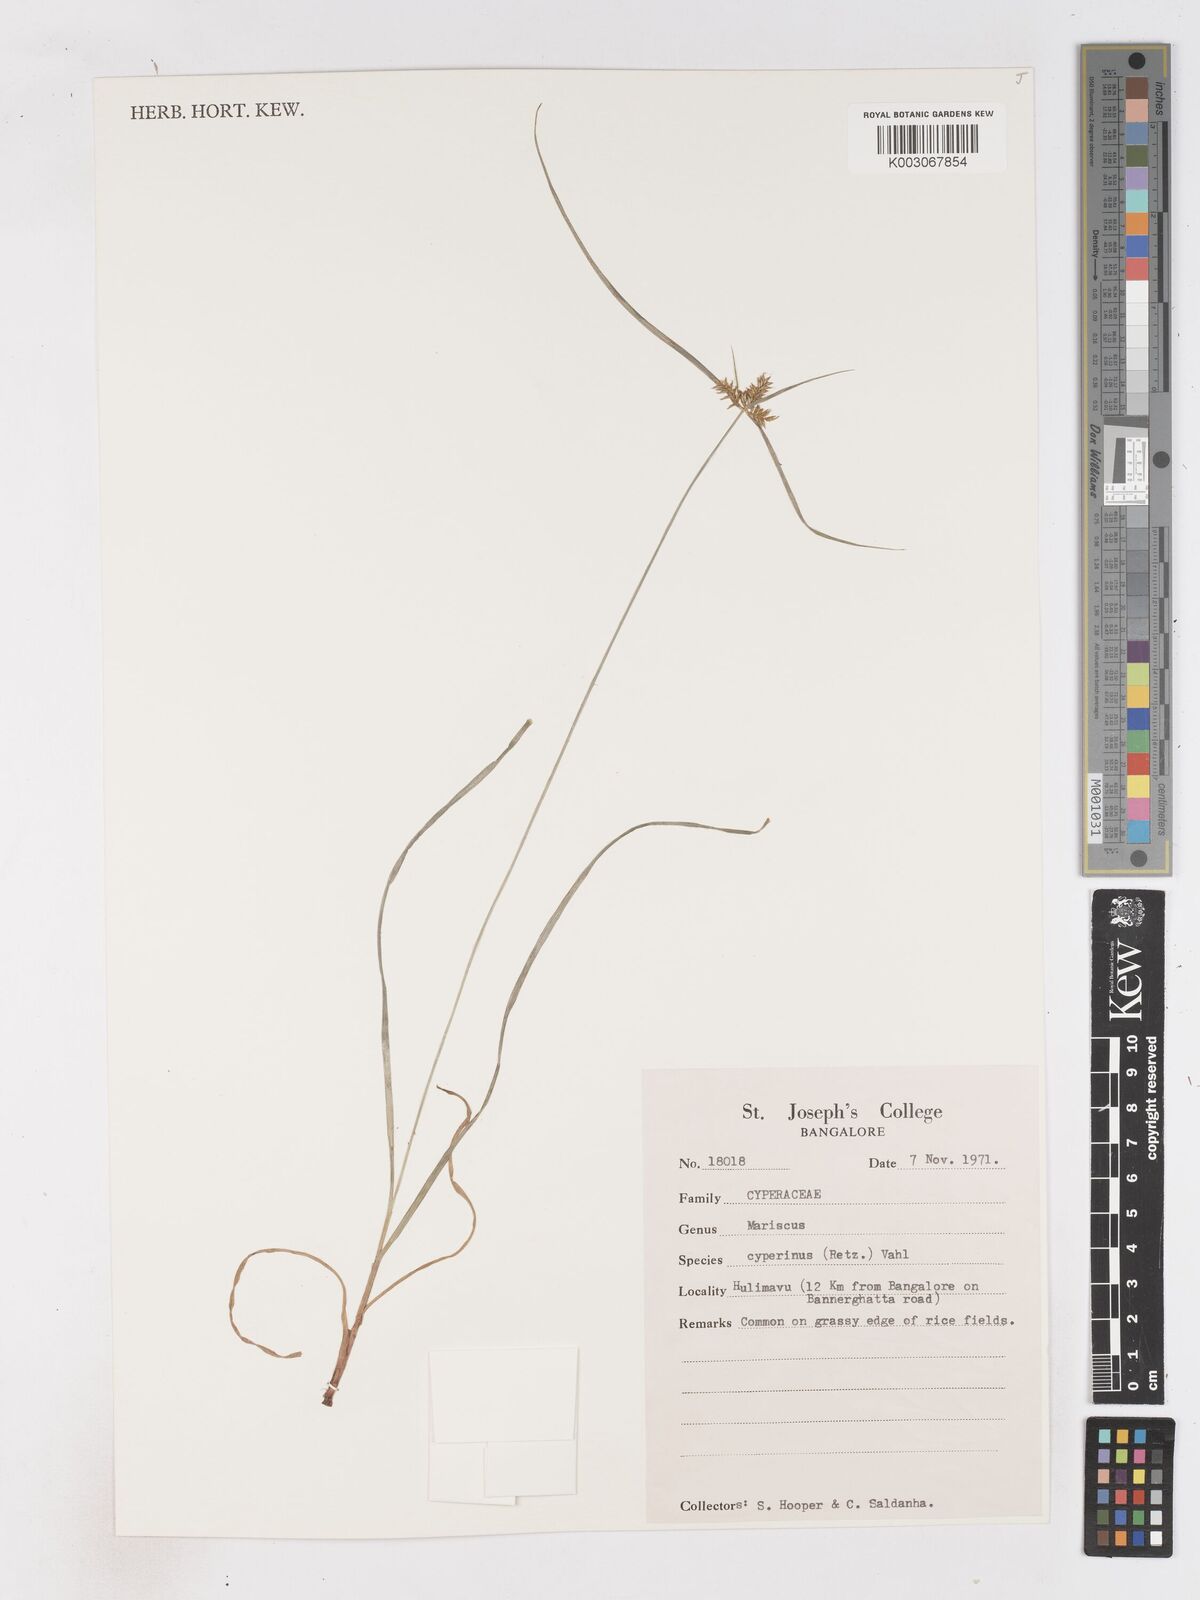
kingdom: Plantae
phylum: Tracheophyta
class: Liliopsida
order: Poales
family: Cyperaceae
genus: Cyperus
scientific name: Cyperus cyperinus
